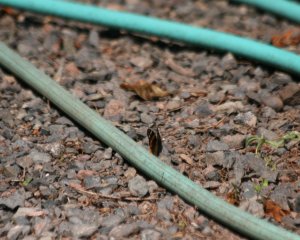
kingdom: Animalia
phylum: Arthropoda
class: Insecta
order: Lepidoptera
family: Nymphalidae
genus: Vanessa
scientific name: Vanessa atalanta
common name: Red Admiral
